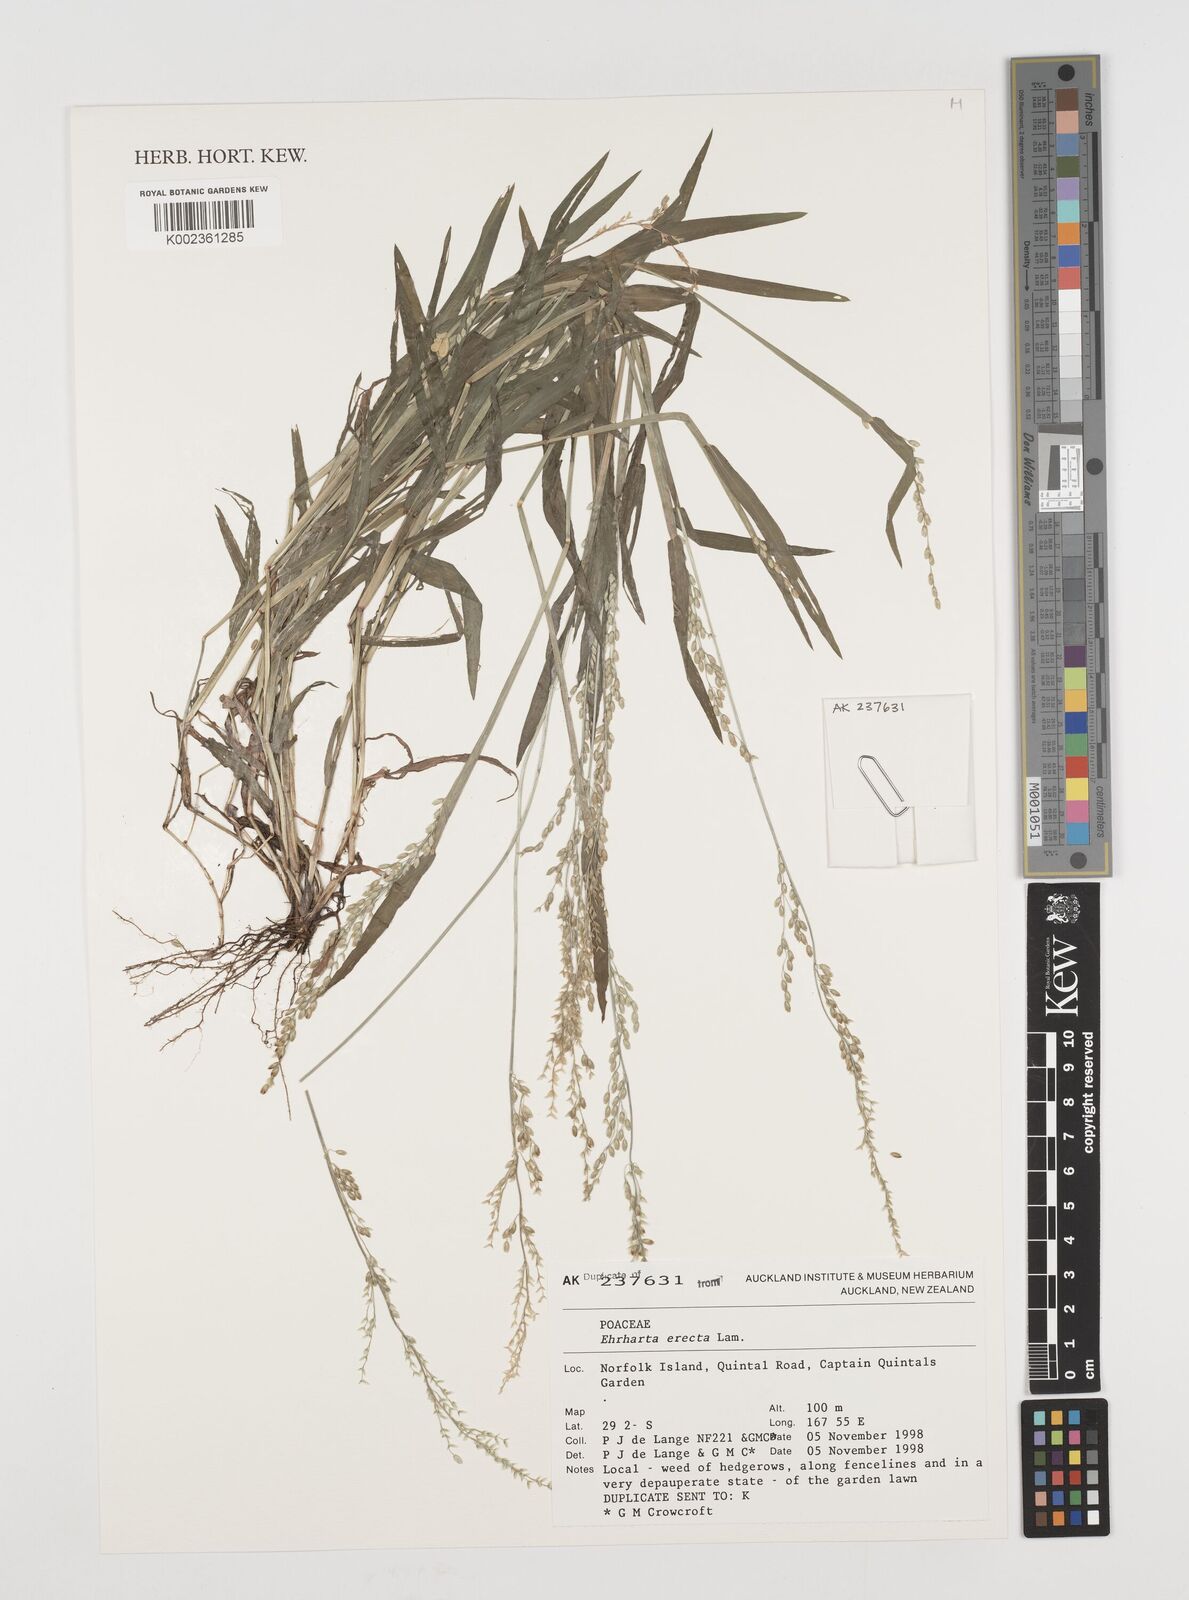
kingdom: Plantae
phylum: Tracheophyta
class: Liliopsida
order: Poales
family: Poaceae
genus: Ehrharta
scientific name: Ehrharta erecta
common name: Panic veldtgrass
